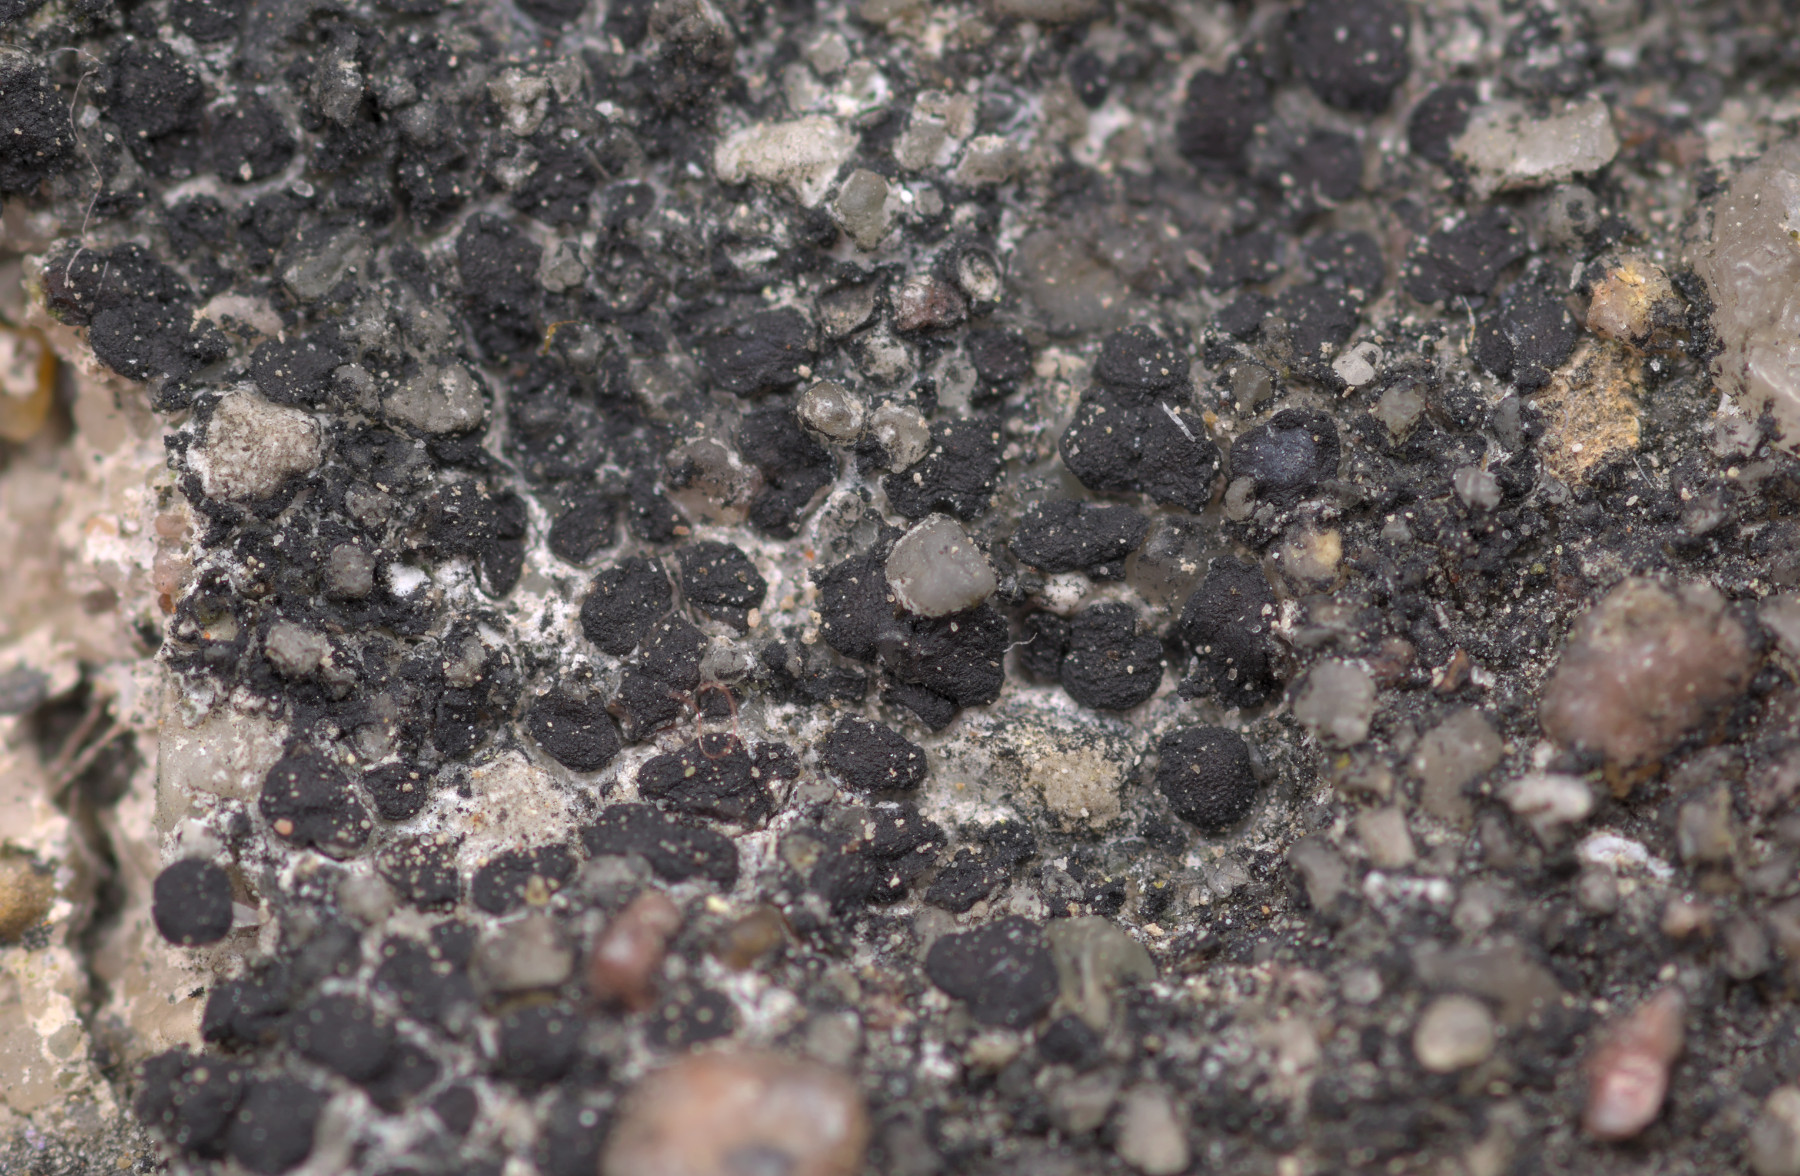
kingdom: Fungi
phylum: Ascomycota
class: Lecanoromycetes
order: Acarosporales
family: Acarosporaceae
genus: Sarcogyne
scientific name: Sarcogyne regularis
